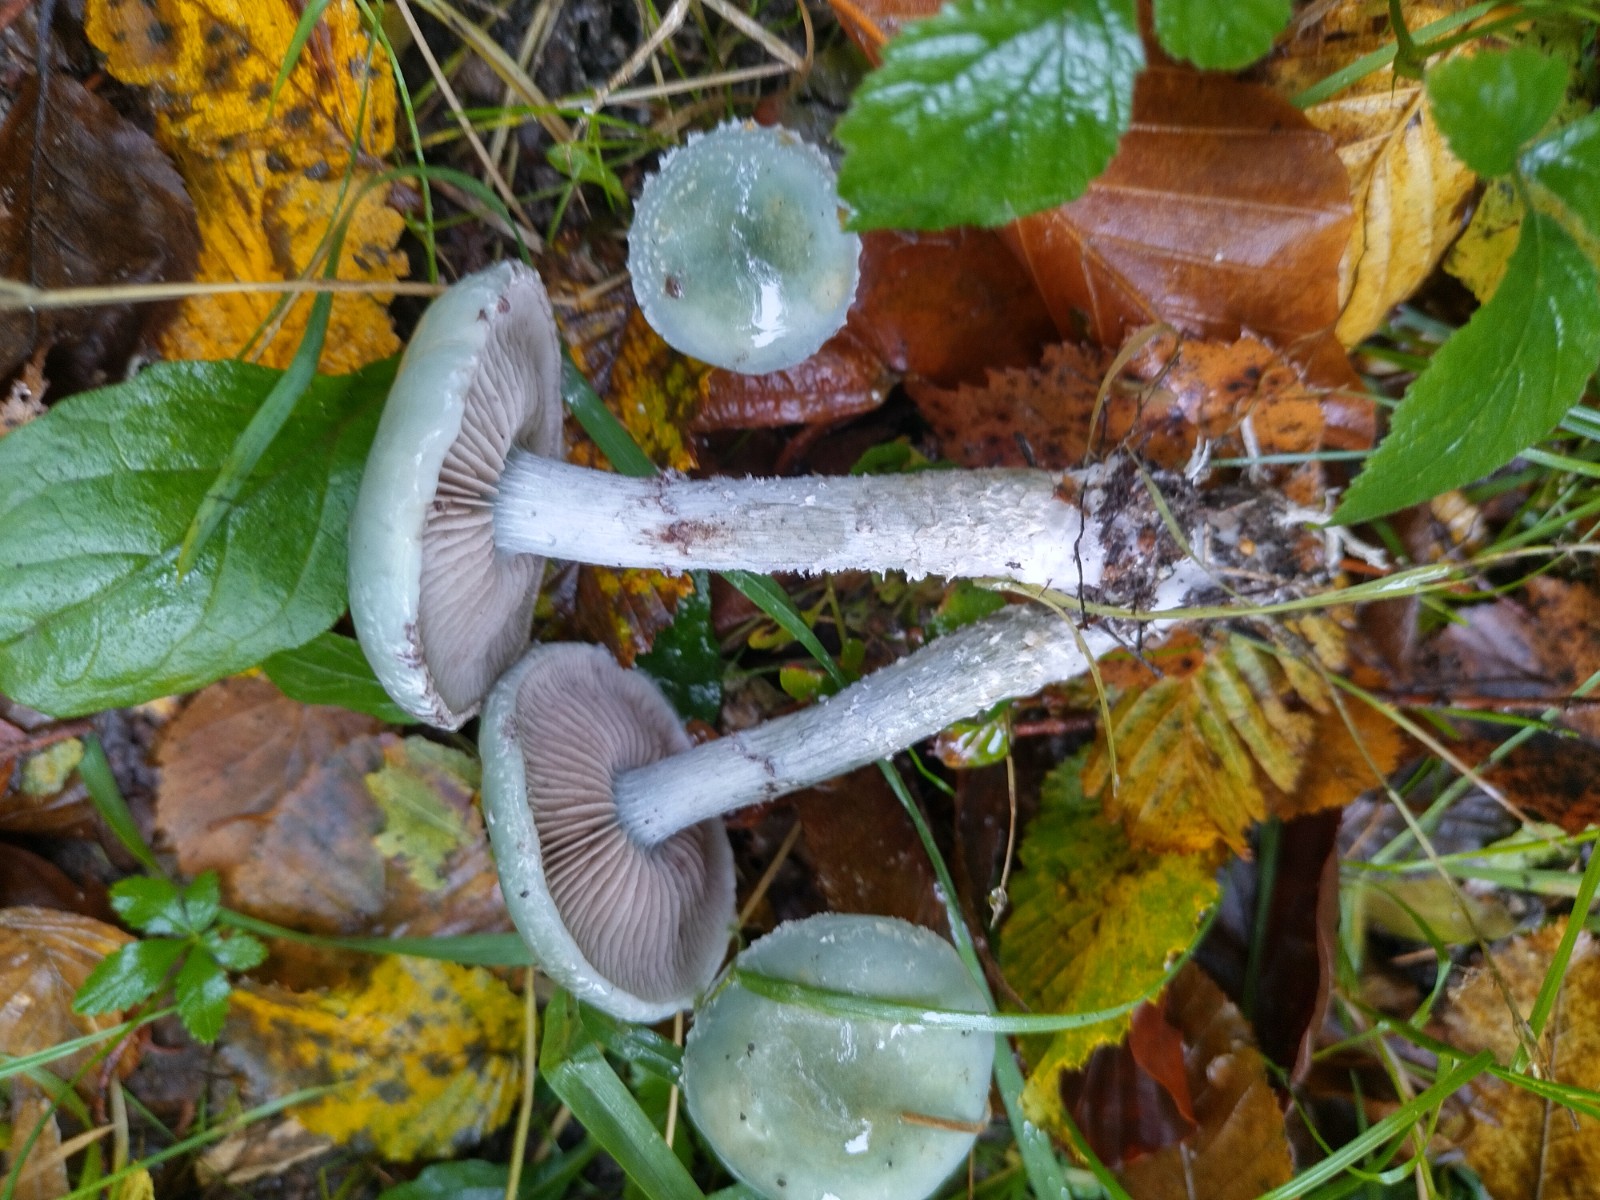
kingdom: Fungi
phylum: Basidiomycota
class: Agaricomycetes
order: Agaricales
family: Strophariaceae
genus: Stropharia
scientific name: Stropharia cyanea
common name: blågrøn bredblad
